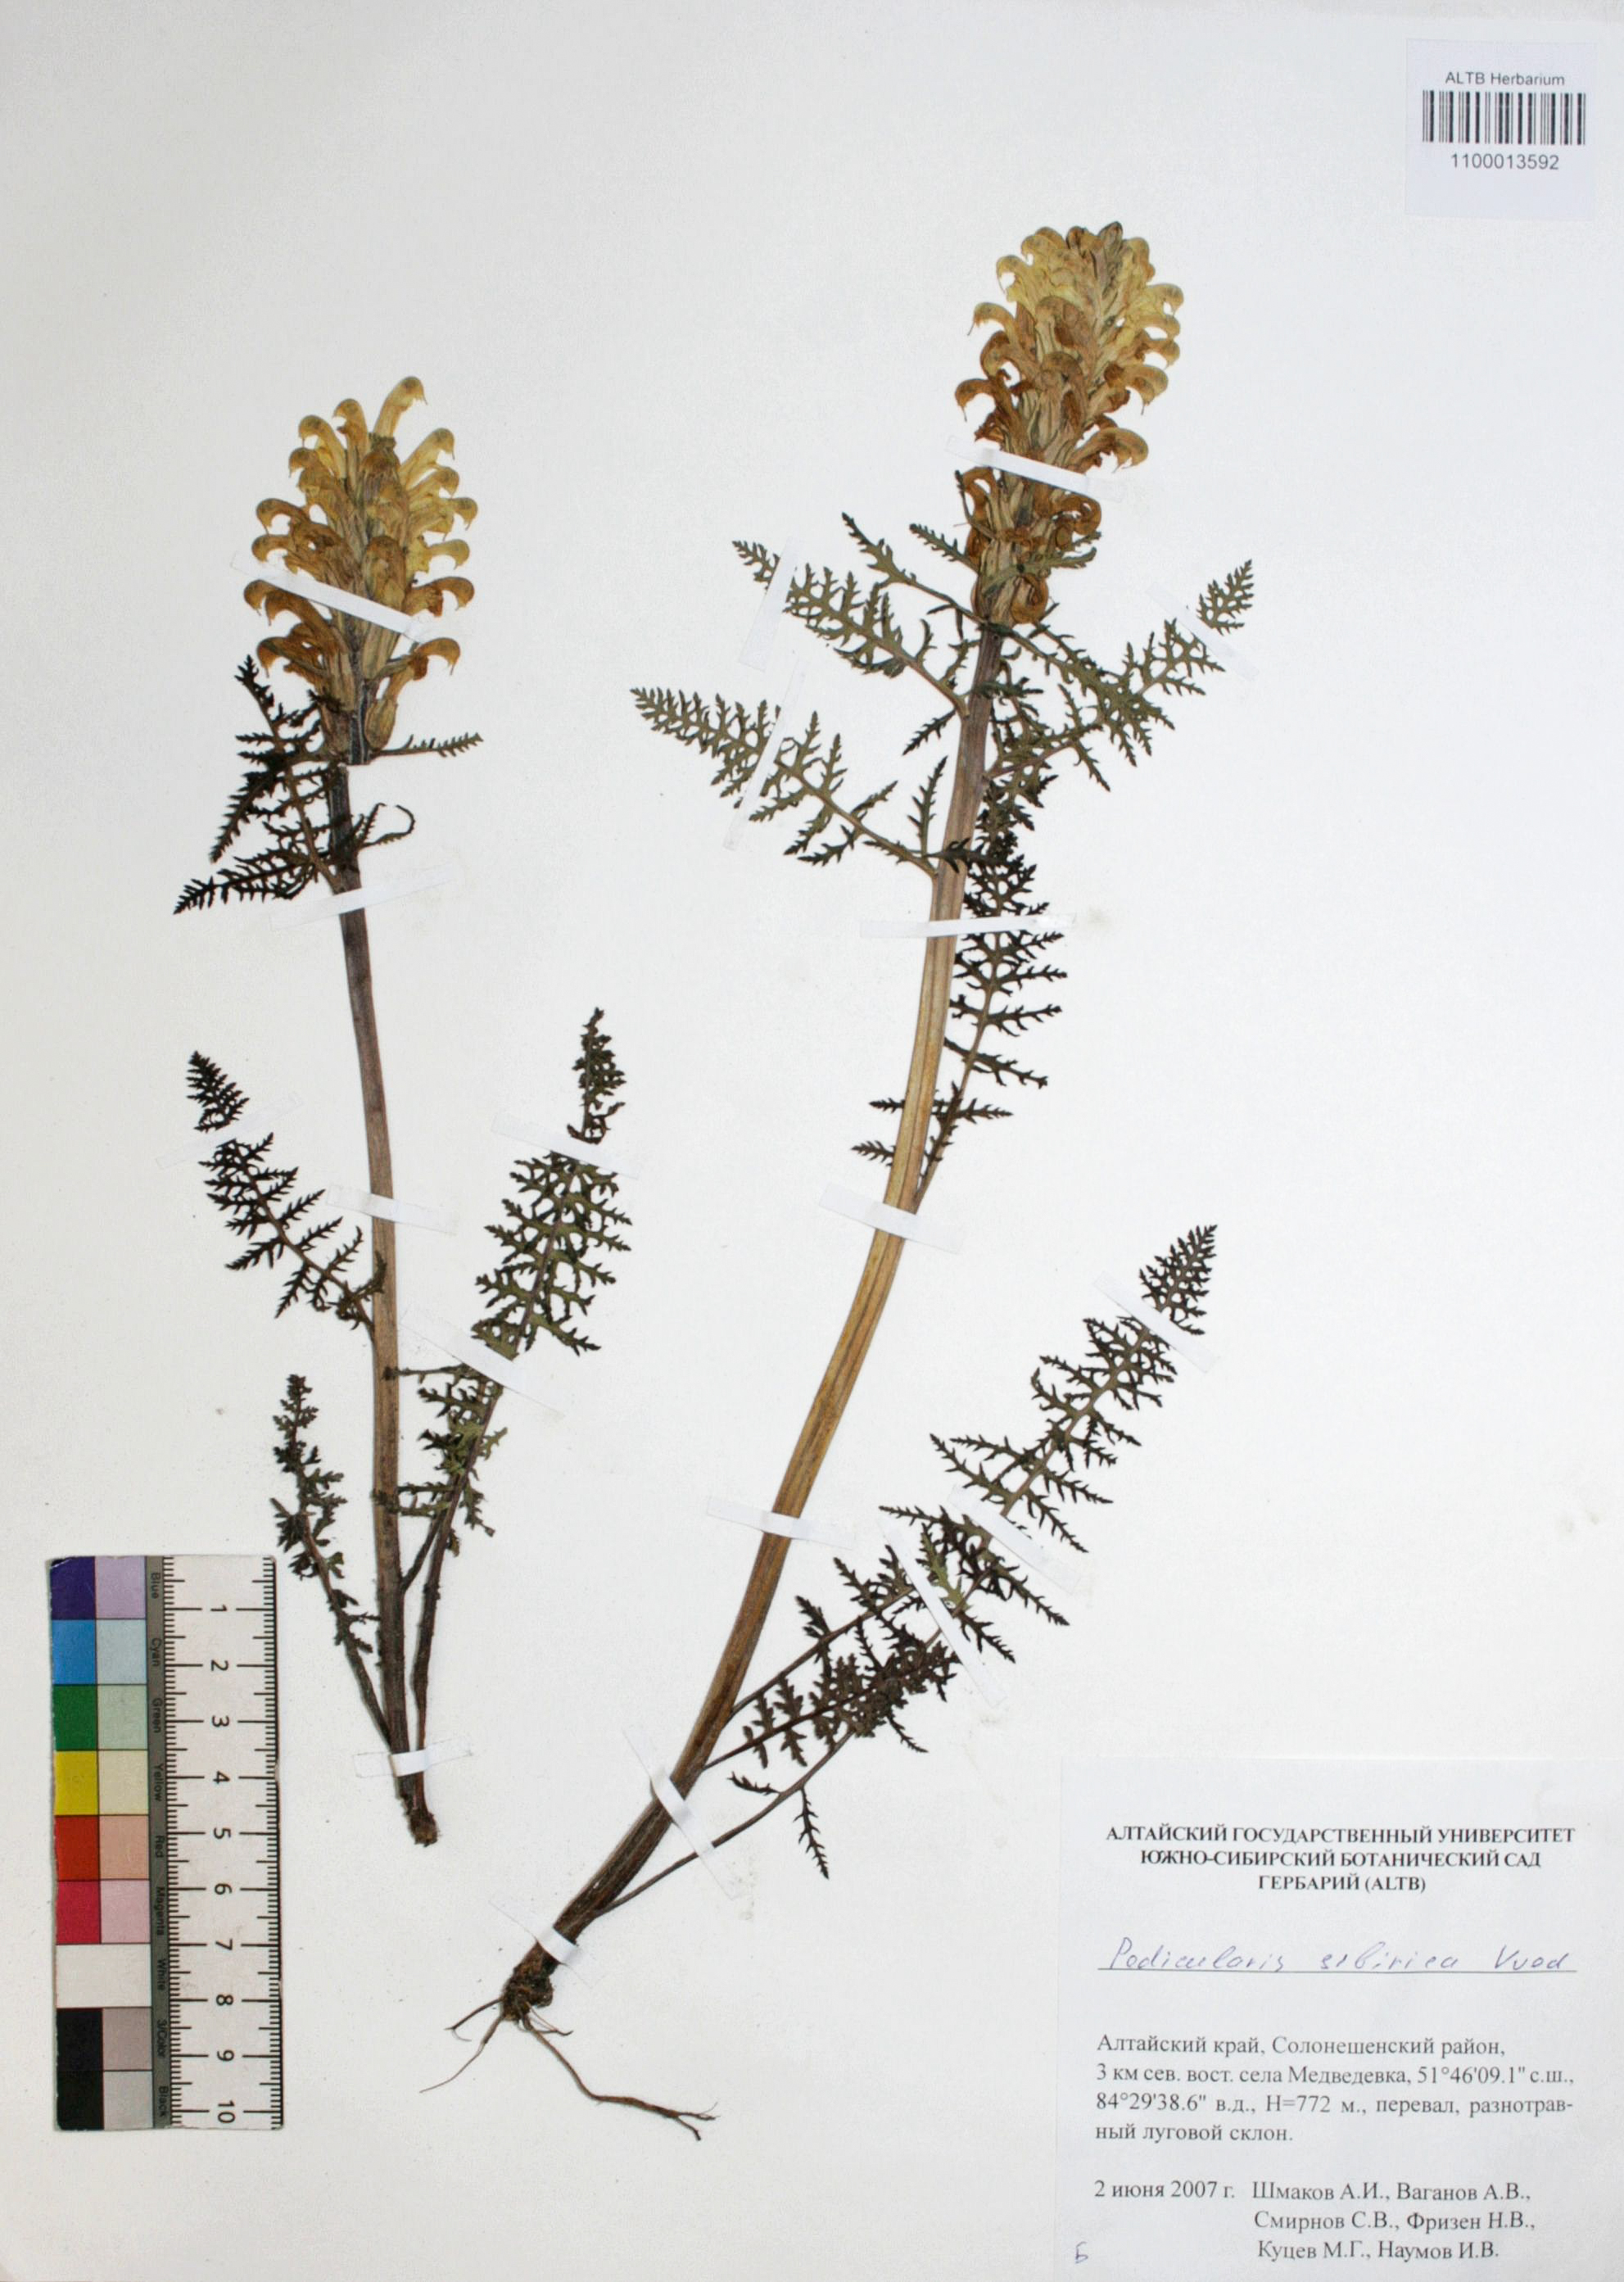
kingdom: Plantae
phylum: Tracheophyta
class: Magnoliopsida
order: Lamiales
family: Orobanchaceae
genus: Pedicularis
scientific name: Pedicularis sibirica
